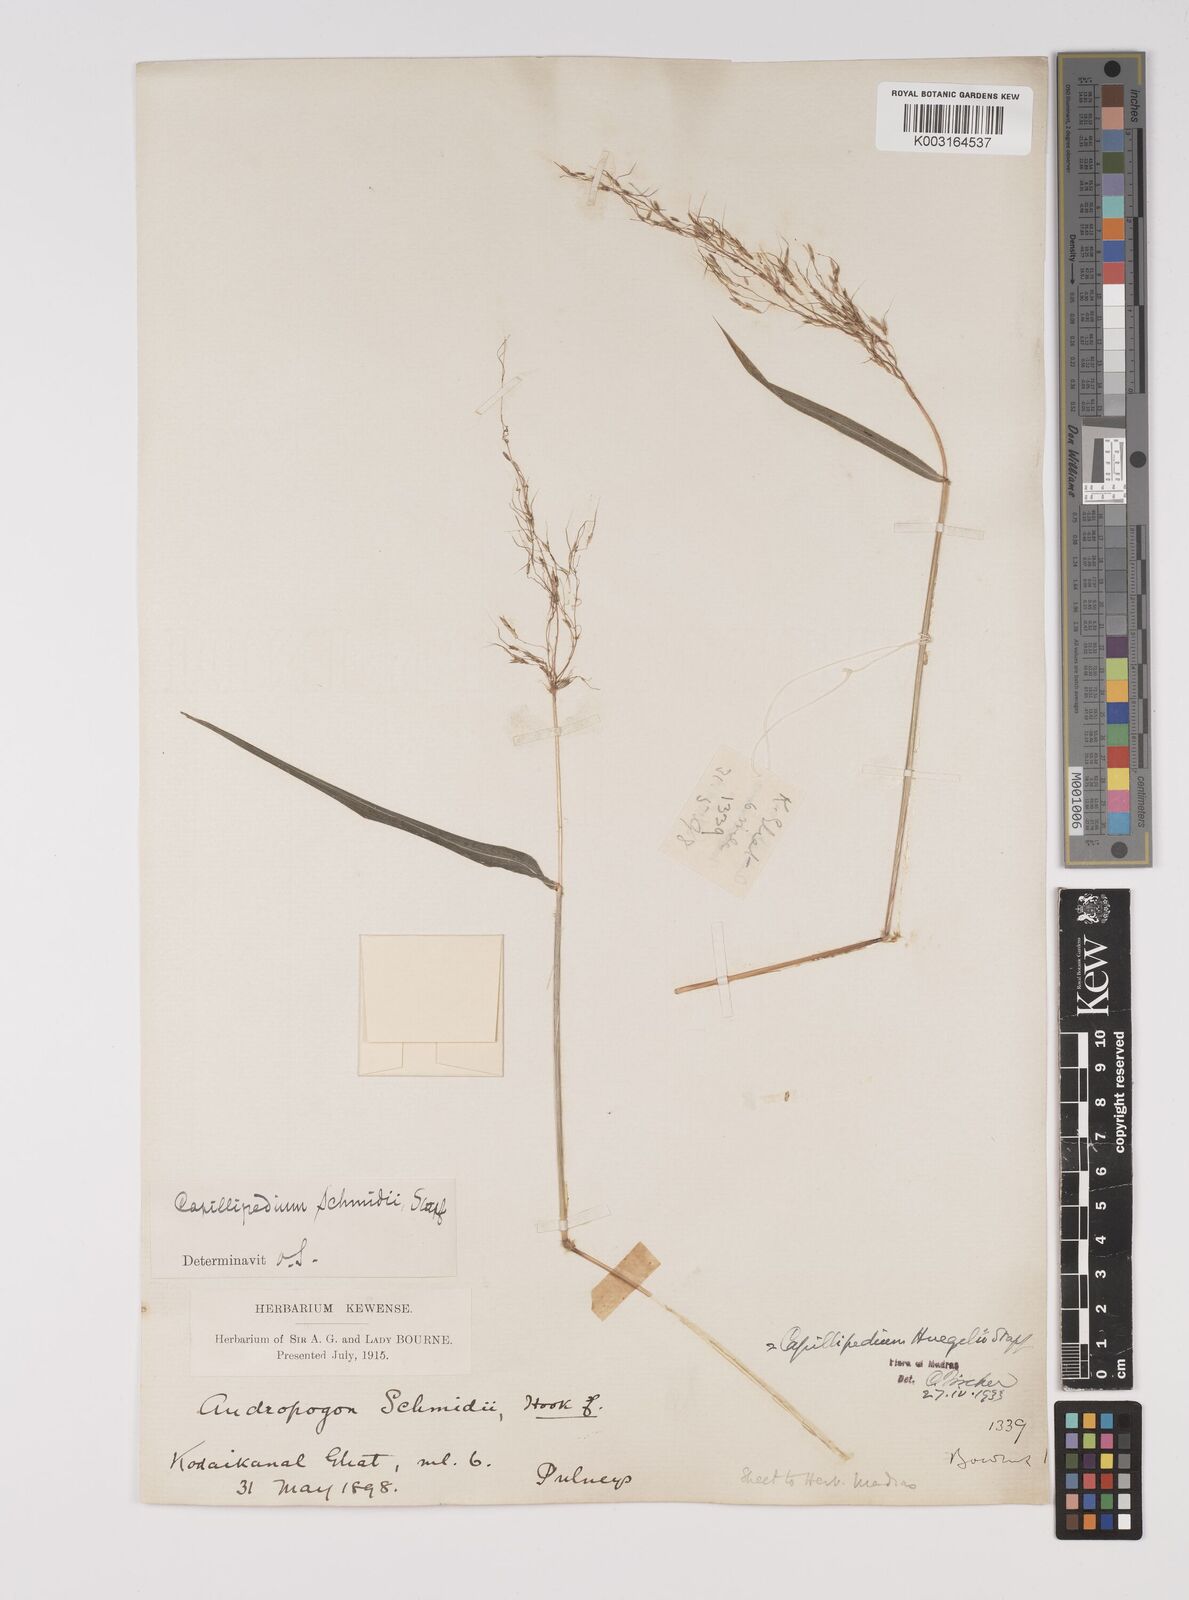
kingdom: Plantae
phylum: Tracheophyta
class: Liliopsida
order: Poales
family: Poaceae
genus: Capillipedium
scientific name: Capillipedium huegelii
